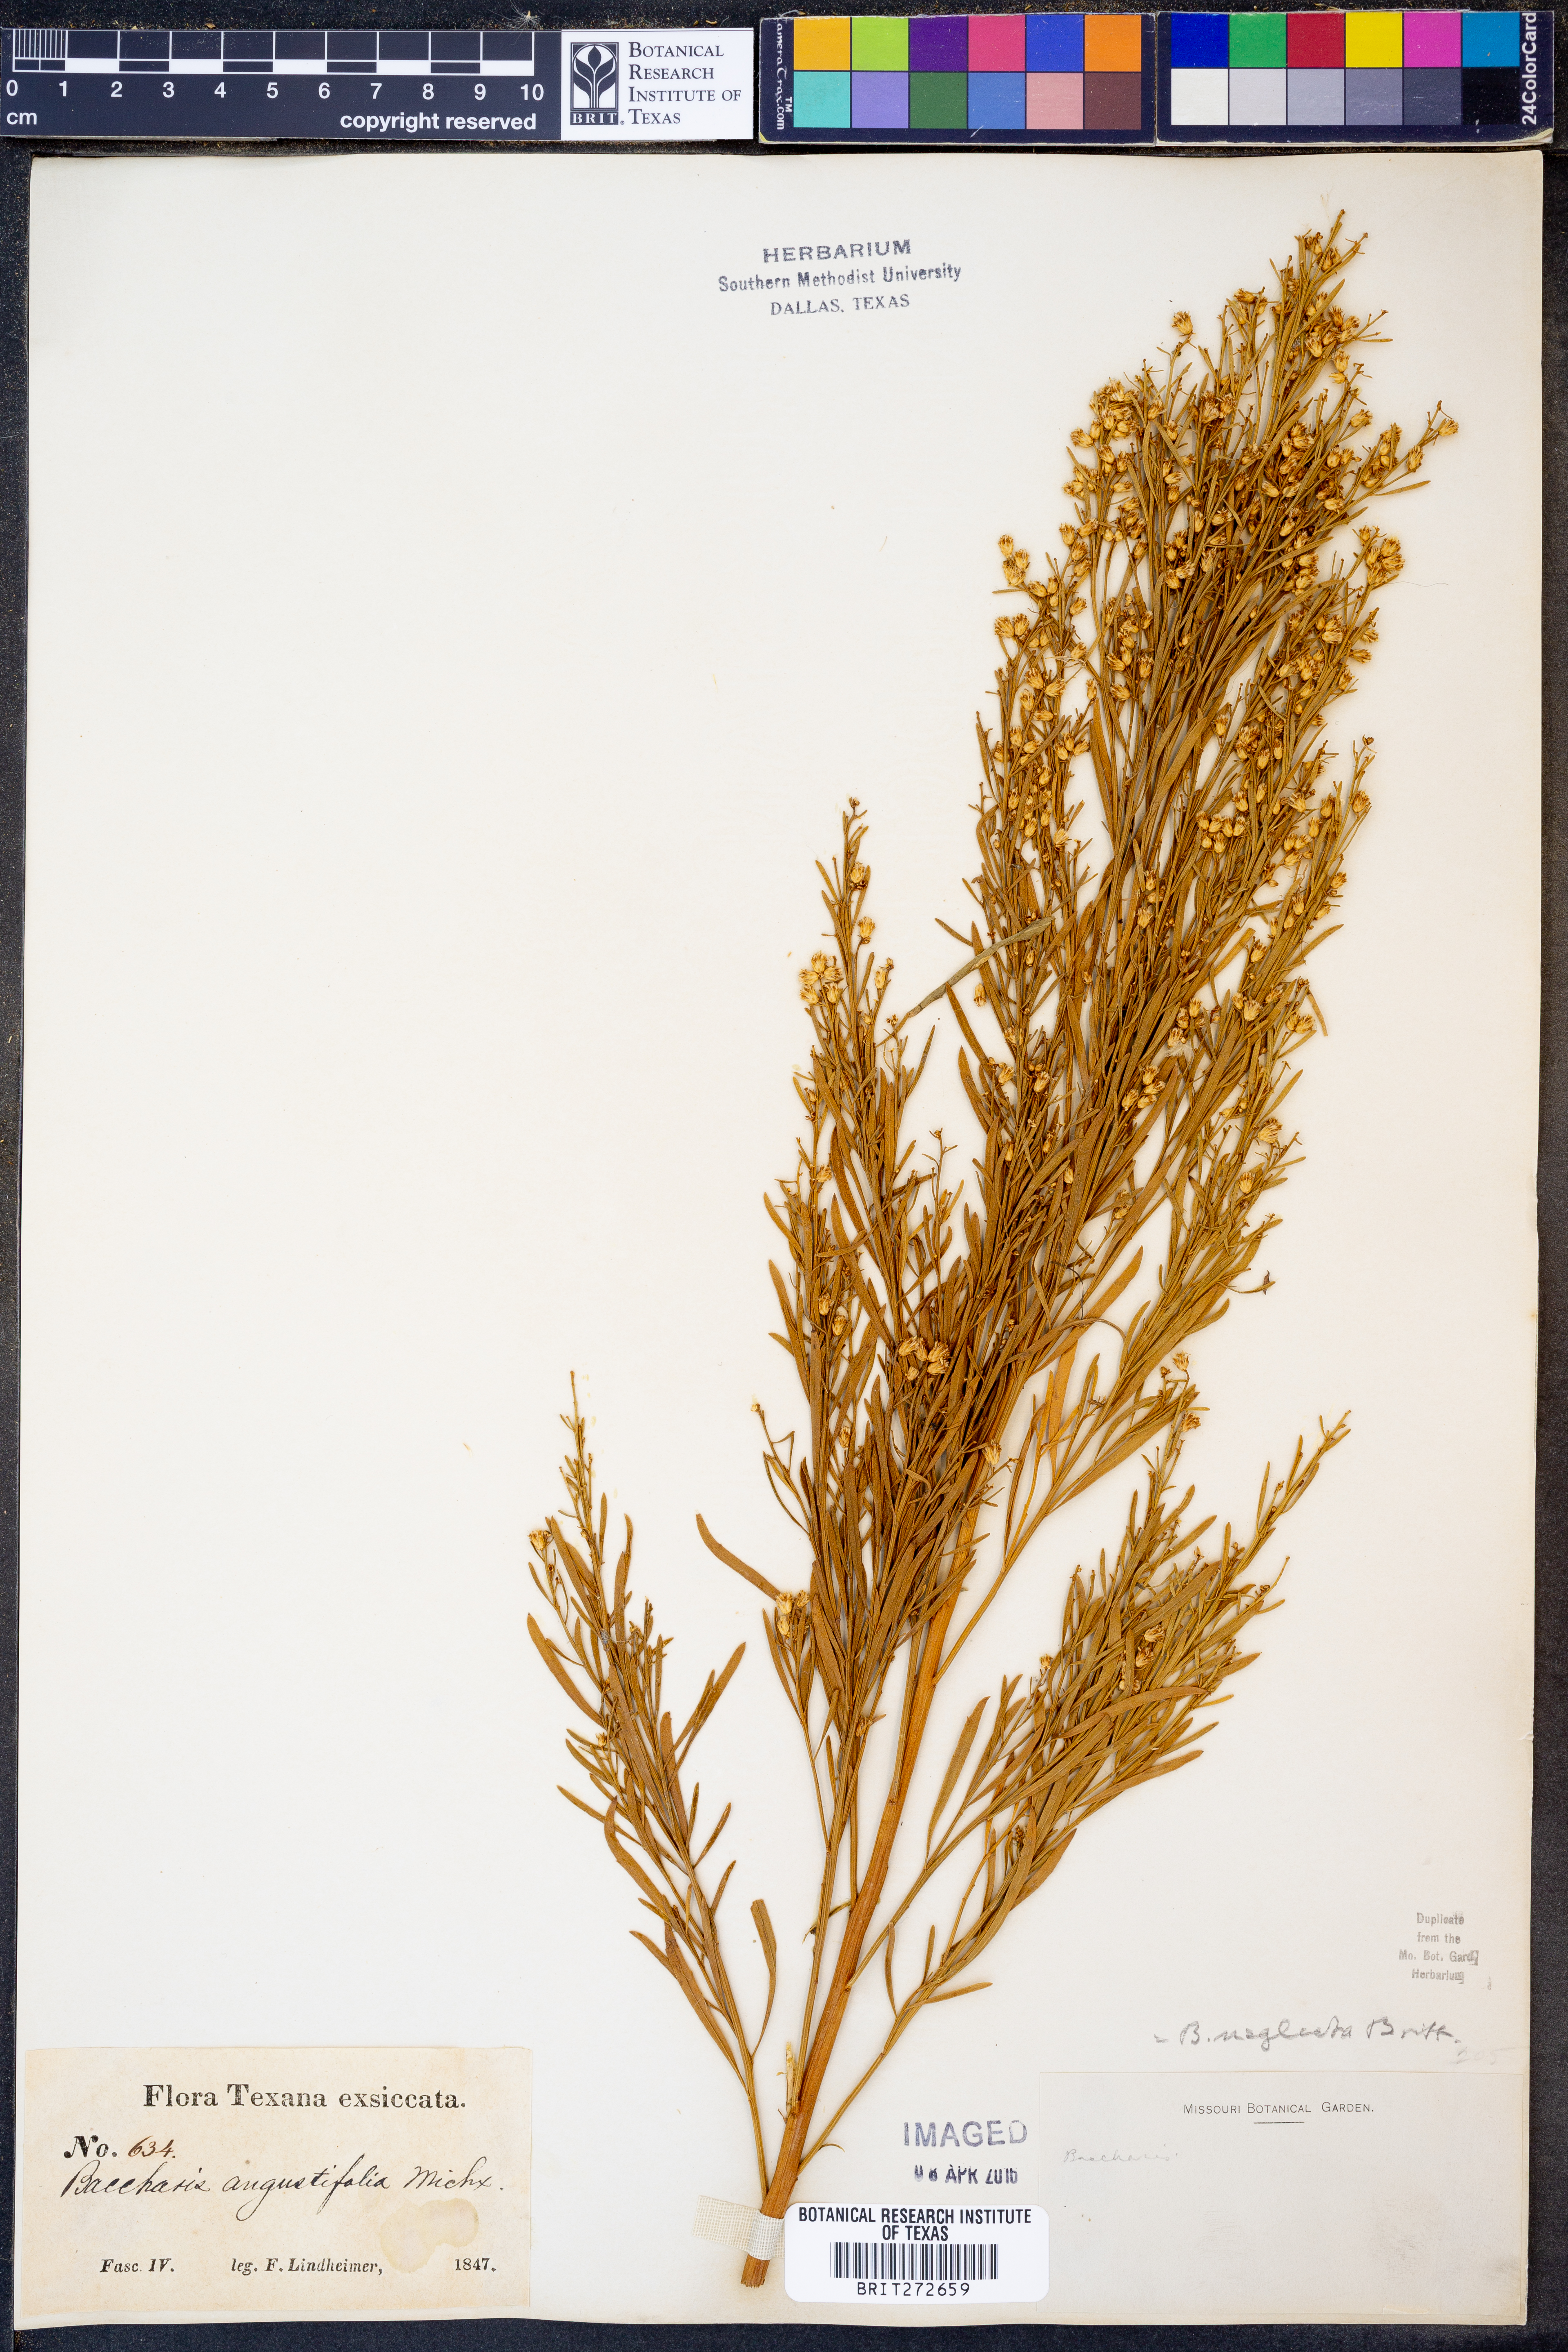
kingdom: Plantae
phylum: Tracheophyta
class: Magnoliopsida
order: Asterales
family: Asteraceae
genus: Baccharis
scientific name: Baccharis neglecta
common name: Roosevelt-weed
